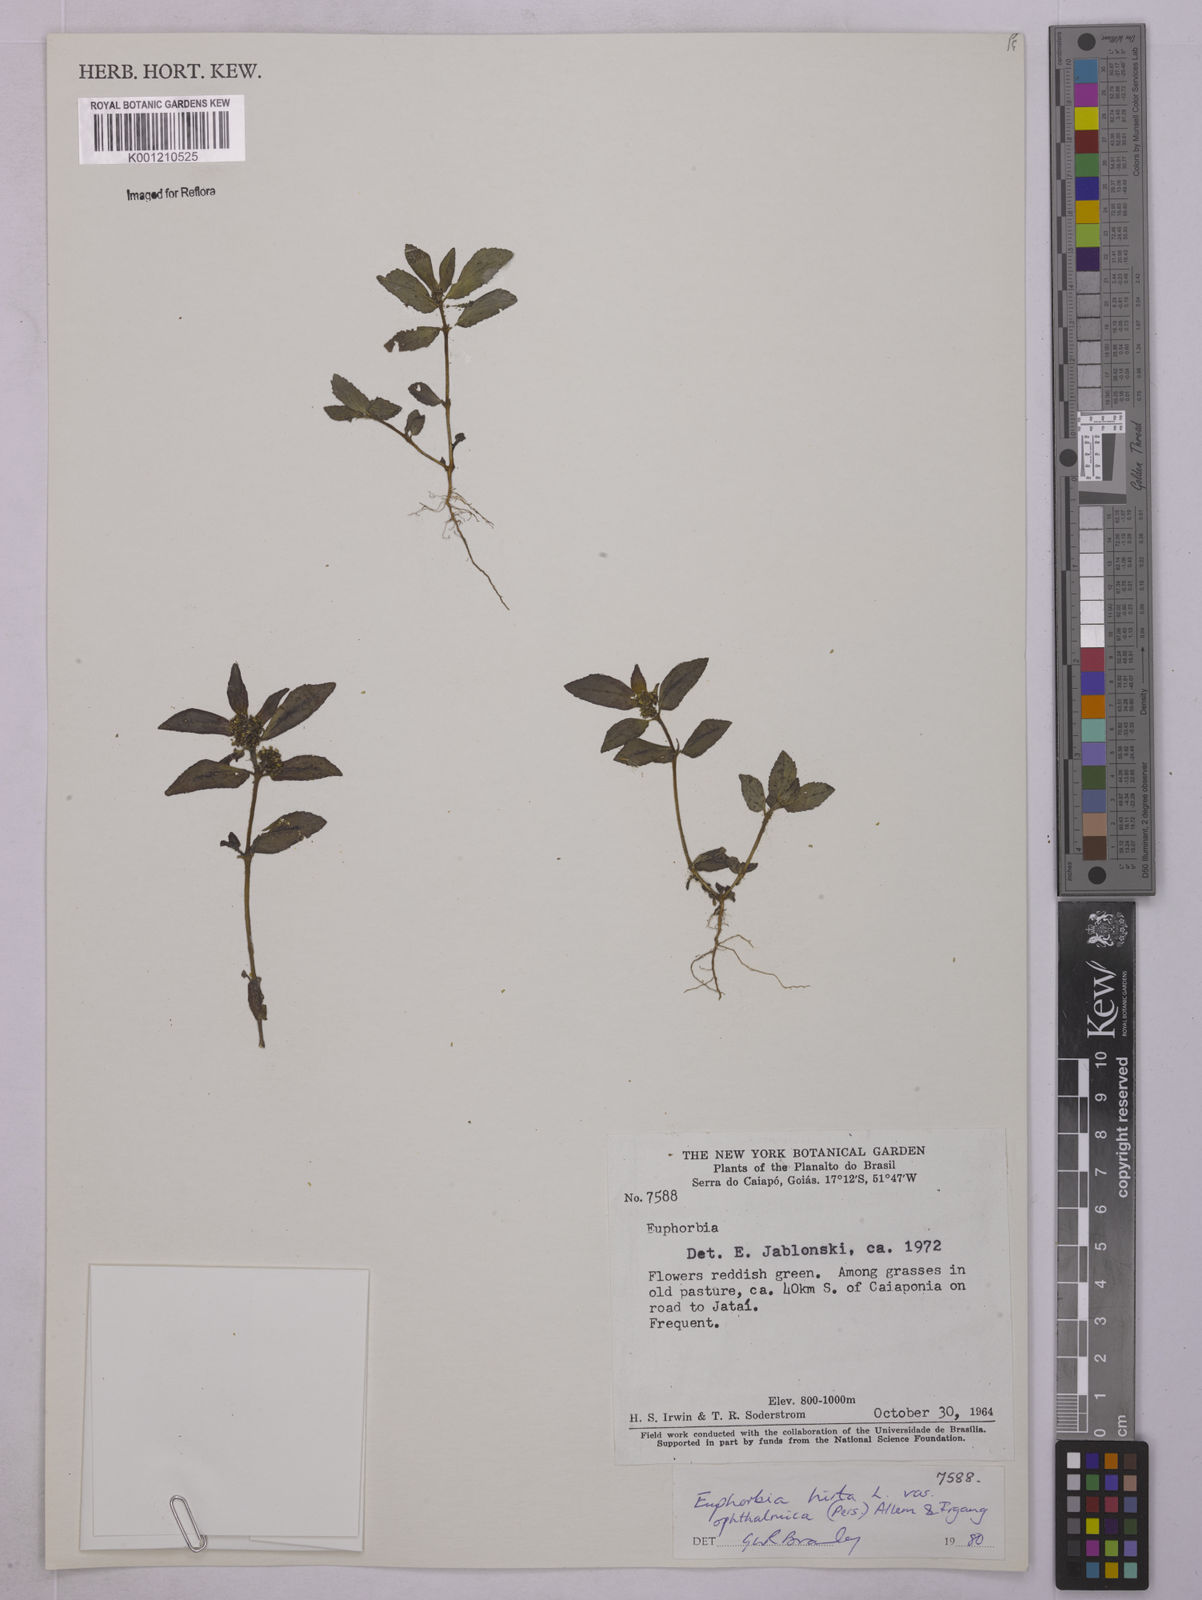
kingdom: Plantae
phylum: Tracheophyta
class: Magnoliopsida
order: Malpighiales
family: Euphorbiaceae
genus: Euphorbia
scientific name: Euphorbia ophthalmica
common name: Florida hammock sandmat
